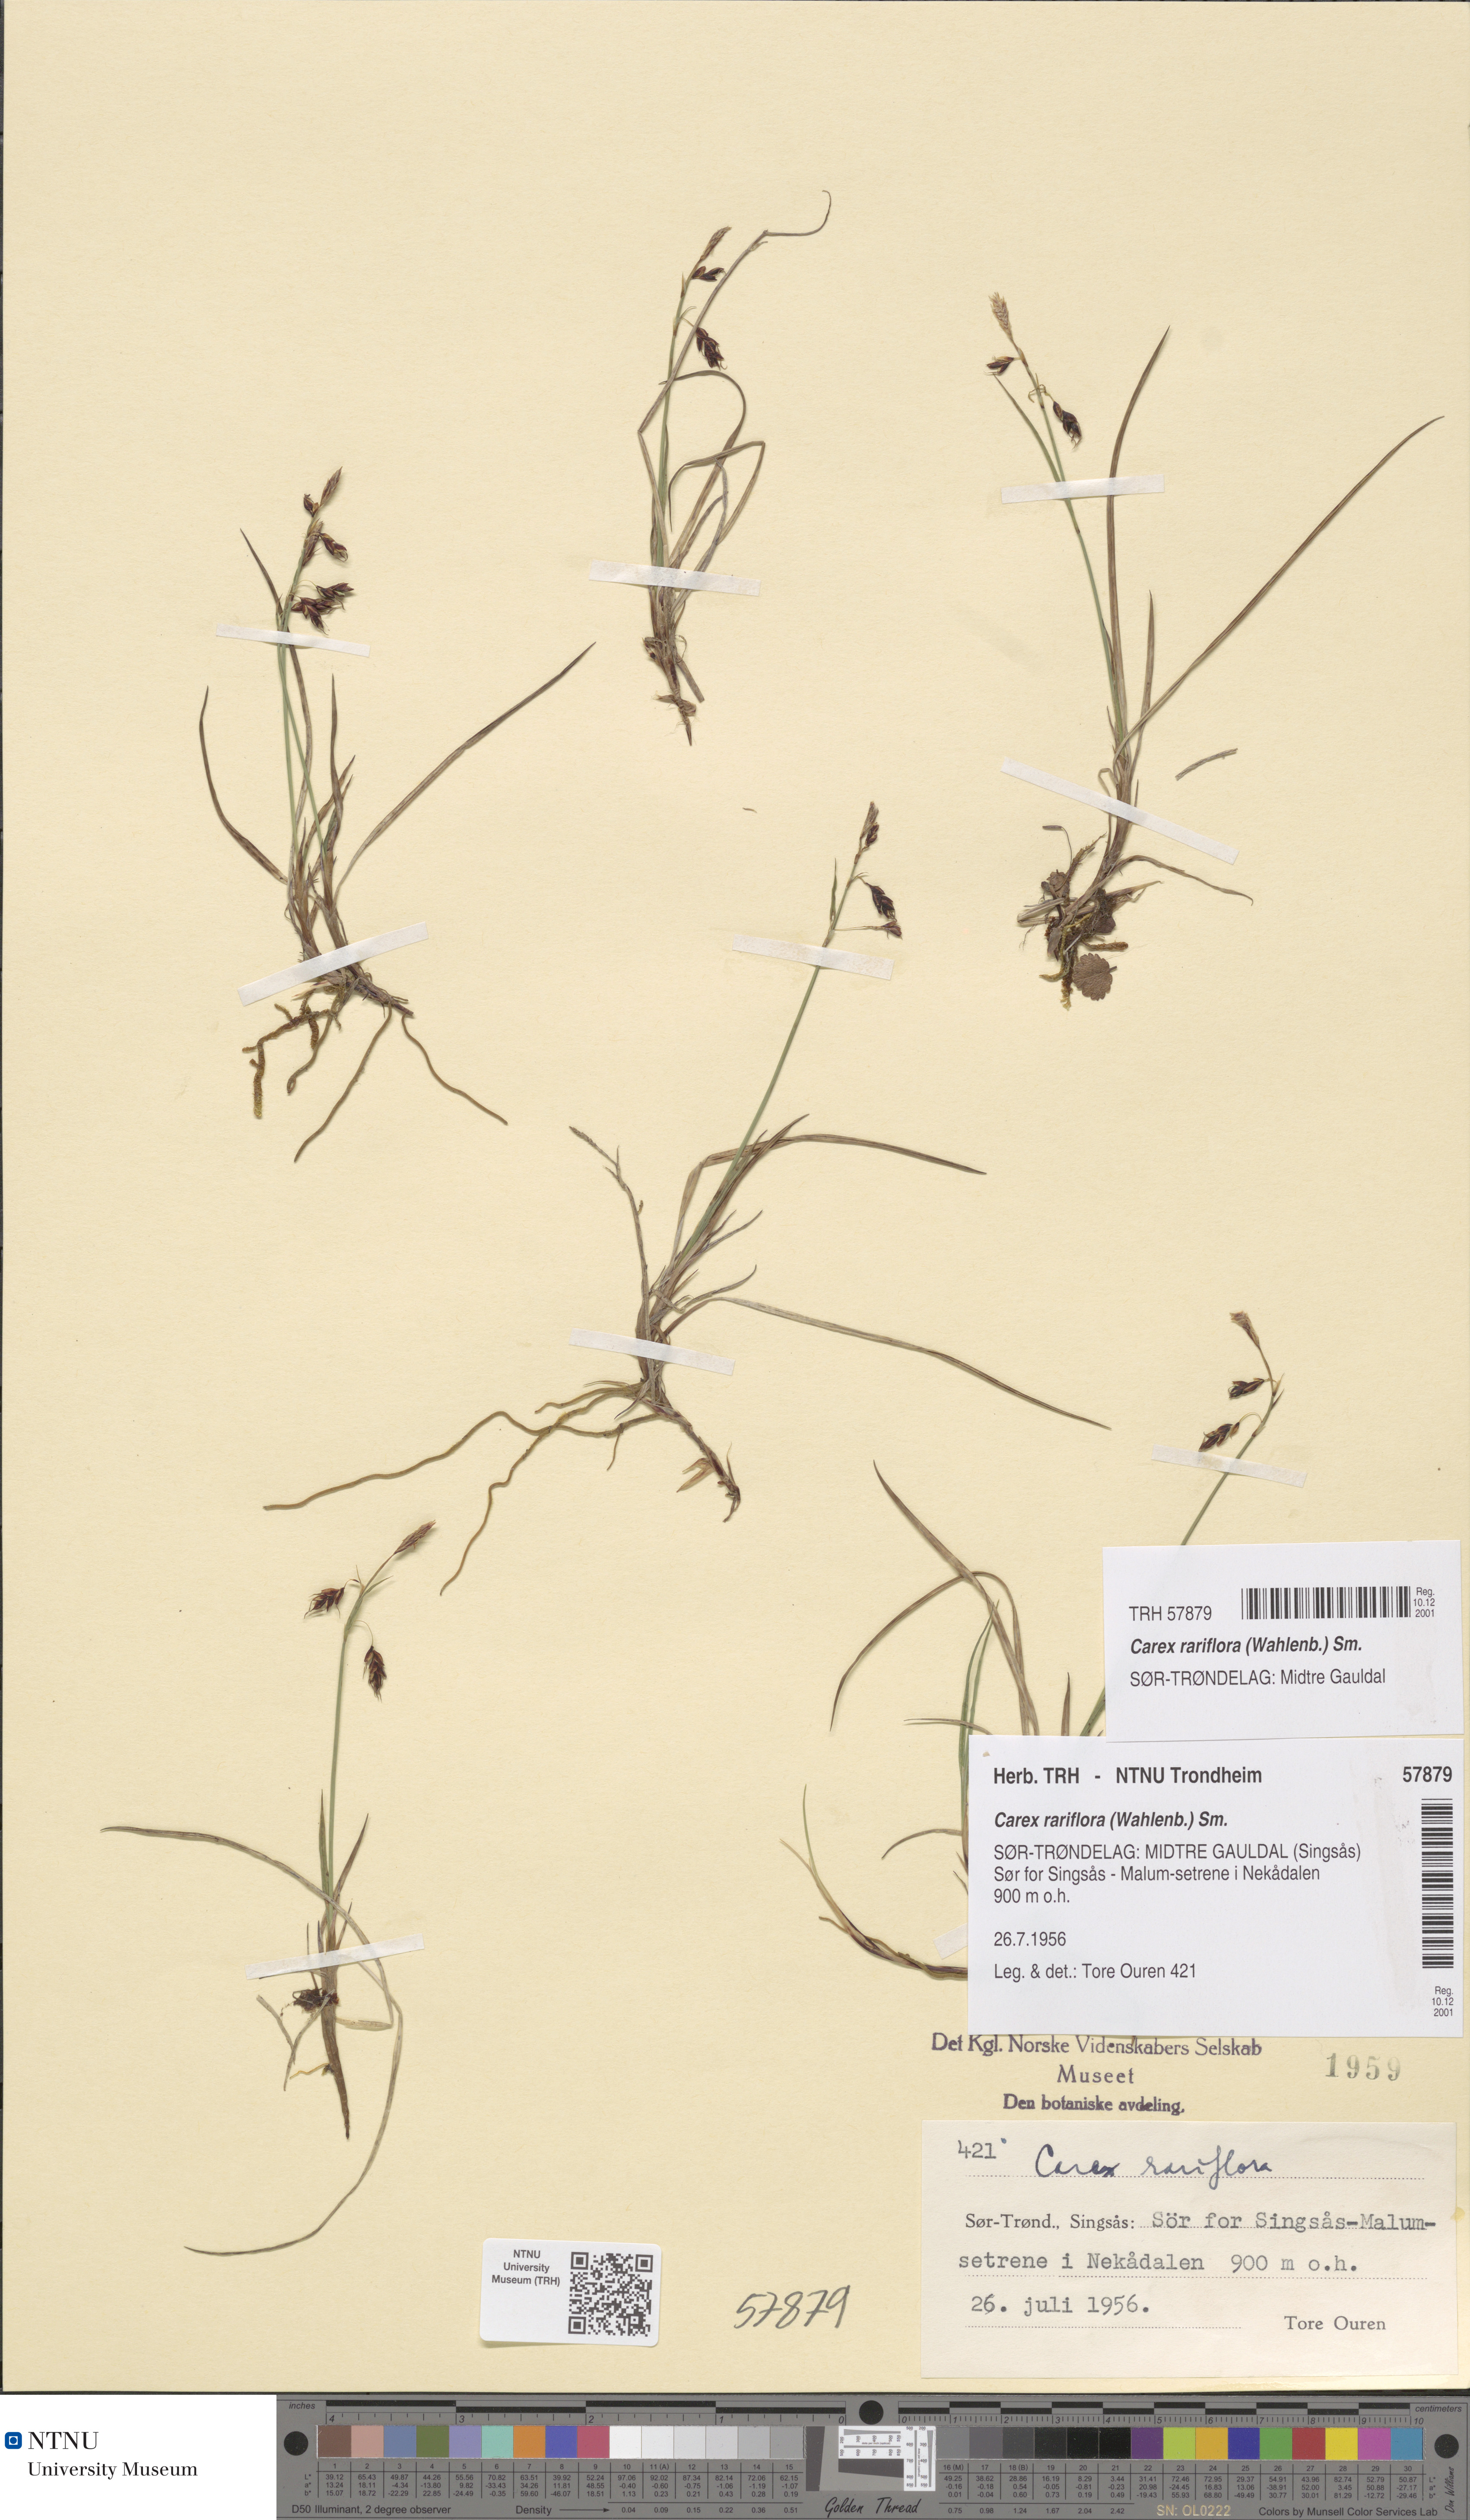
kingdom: Plantae
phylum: Tracheophyta
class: Liliopsida
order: Poales
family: Cyperaceae
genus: Carex
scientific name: Carex rariflora
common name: Loose-flowered alpine sedge
